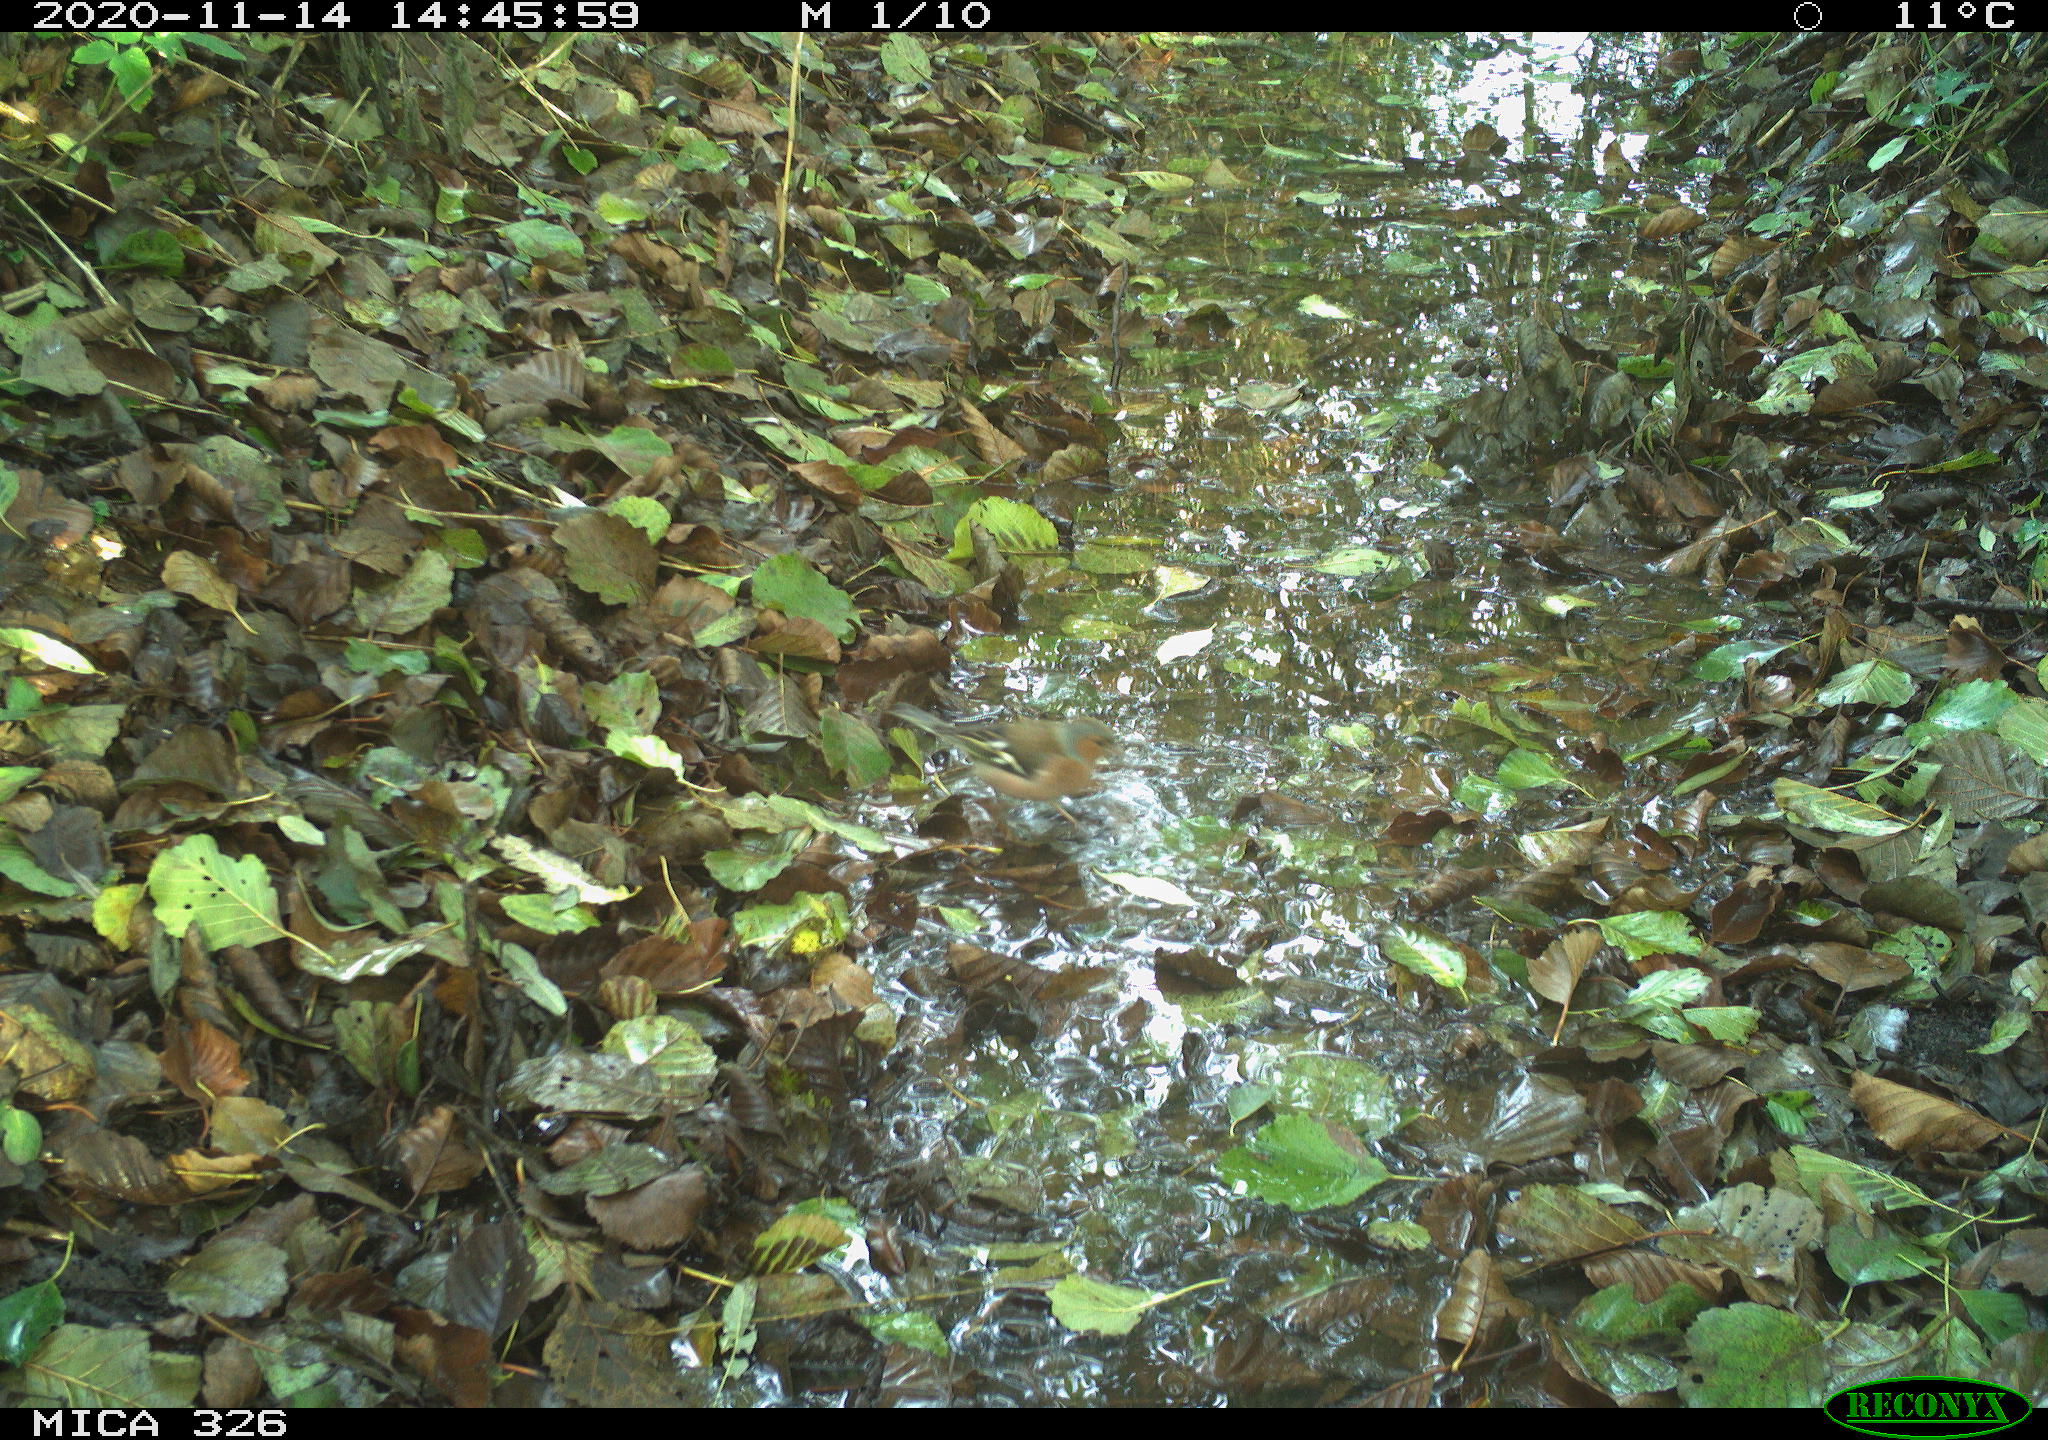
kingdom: Animalia
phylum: Chordata
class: Aves
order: Passeriformes
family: Fringillidae
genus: Fringilla
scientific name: Fringilla coelebs
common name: Common chaffinch
